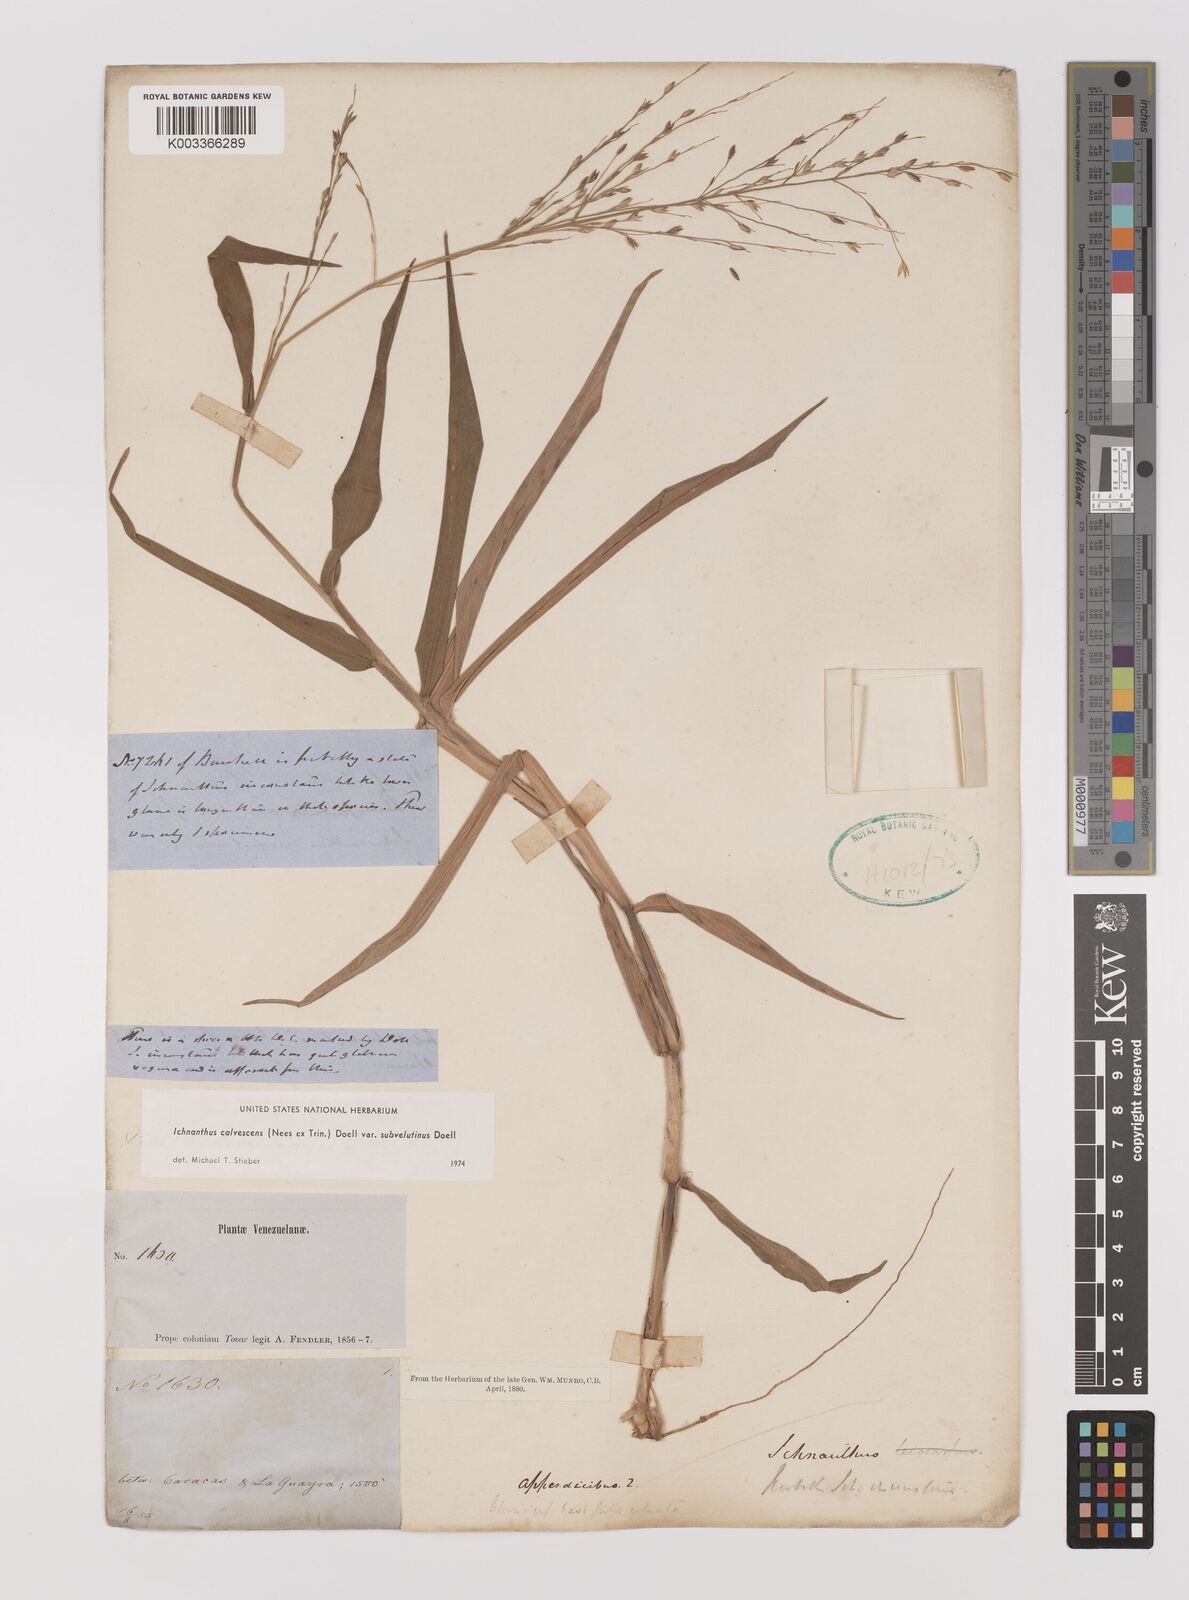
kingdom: Plantae
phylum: Tracheophyta
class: Liliopsida
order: Poales
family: Poaceae
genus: Ichnanthus
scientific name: Ichnanthus calvescens
